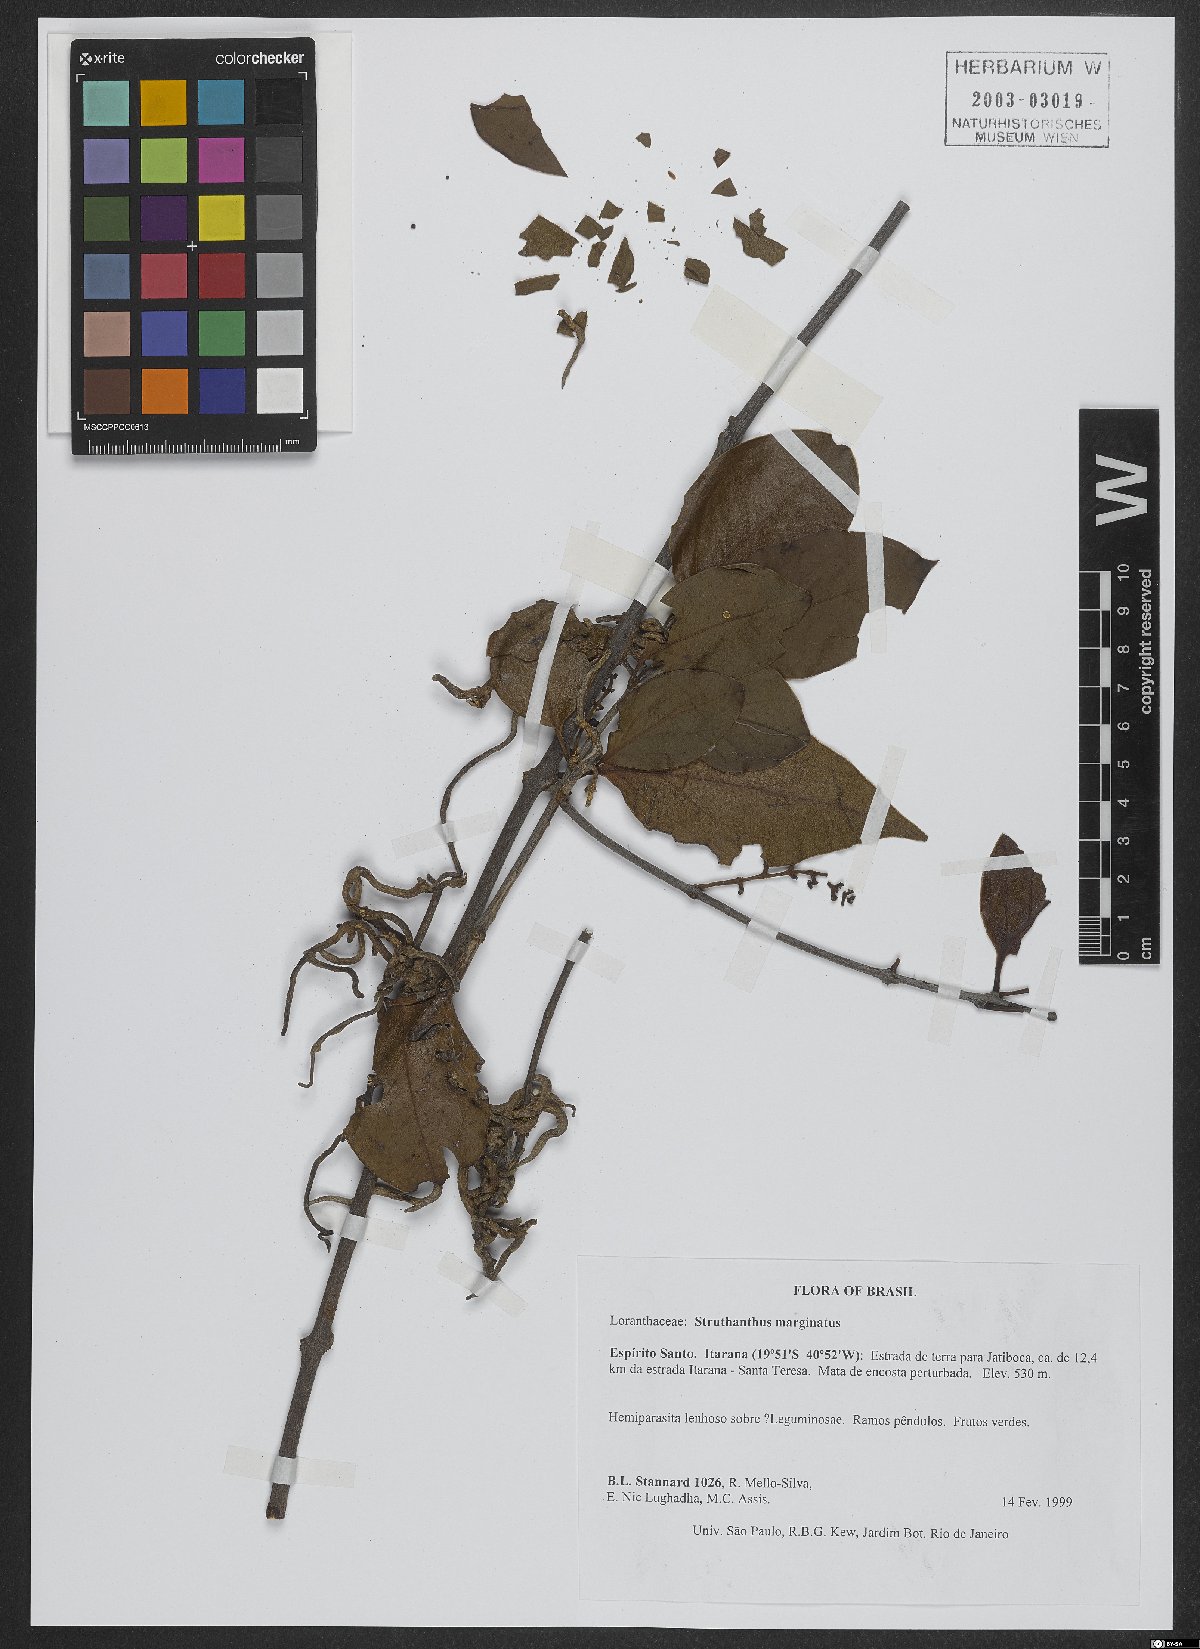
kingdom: Plantae
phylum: Tracheophyta
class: Magnoliopsida
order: Santalales
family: Loranthaceae
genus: Struthanthus
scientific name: Struthanthus marginatus
